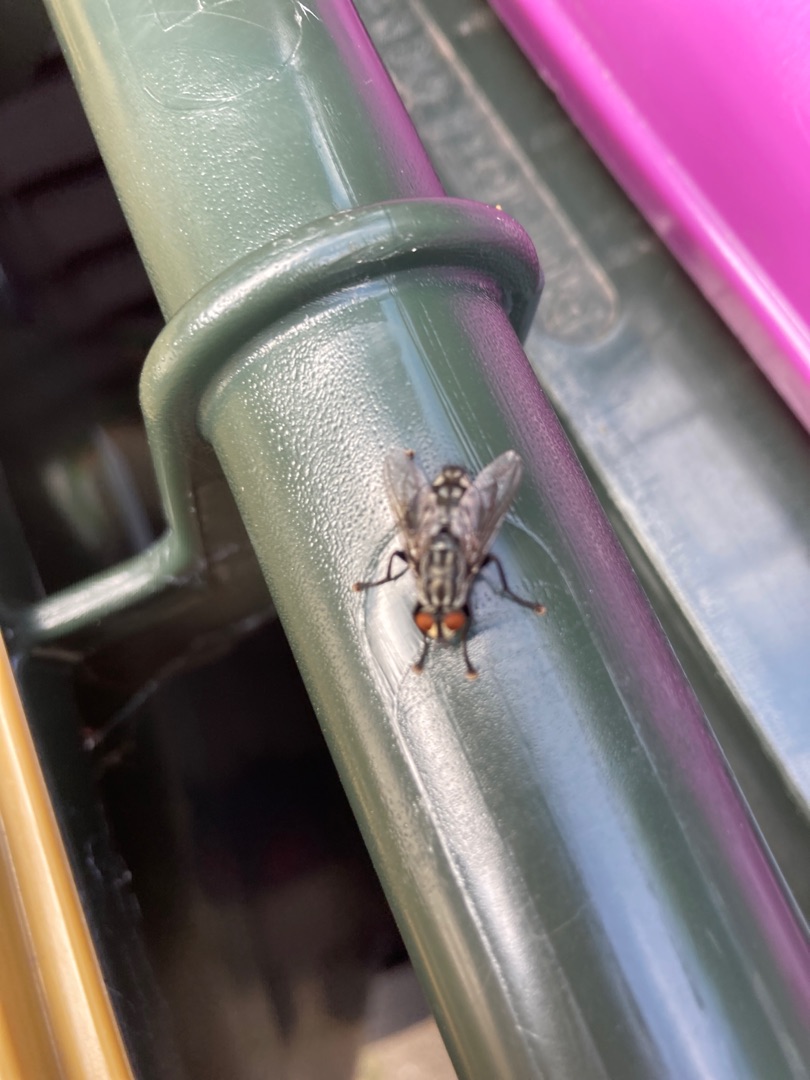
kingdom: Animalia
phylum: Arthropoda
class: Insecta
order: Diptera
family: Sarcophagidae
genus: Sarcophaga
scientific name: Sarcophaga
